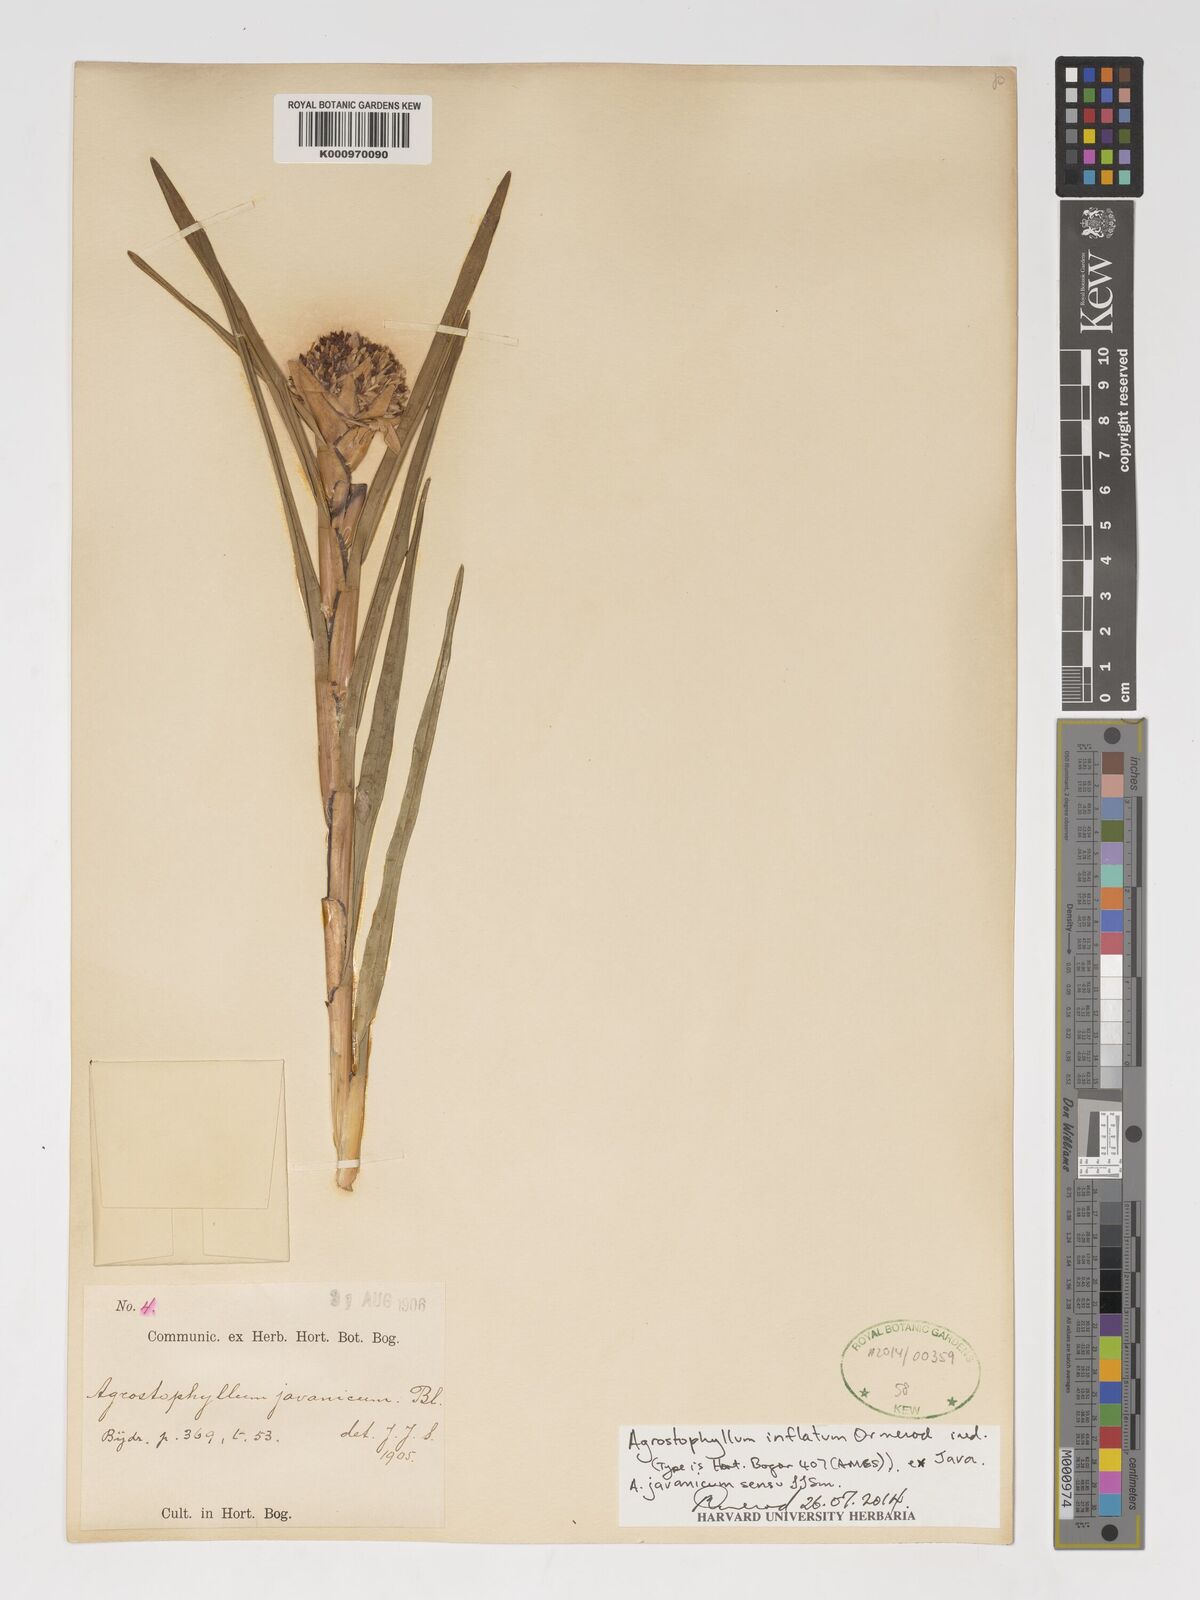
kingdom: Plantae
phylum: Tracheophyta
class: Liliopsida
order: Asparagales
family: Orchidaceae
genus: Agrostophyllum
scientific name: Agrostophyllum inflatum
